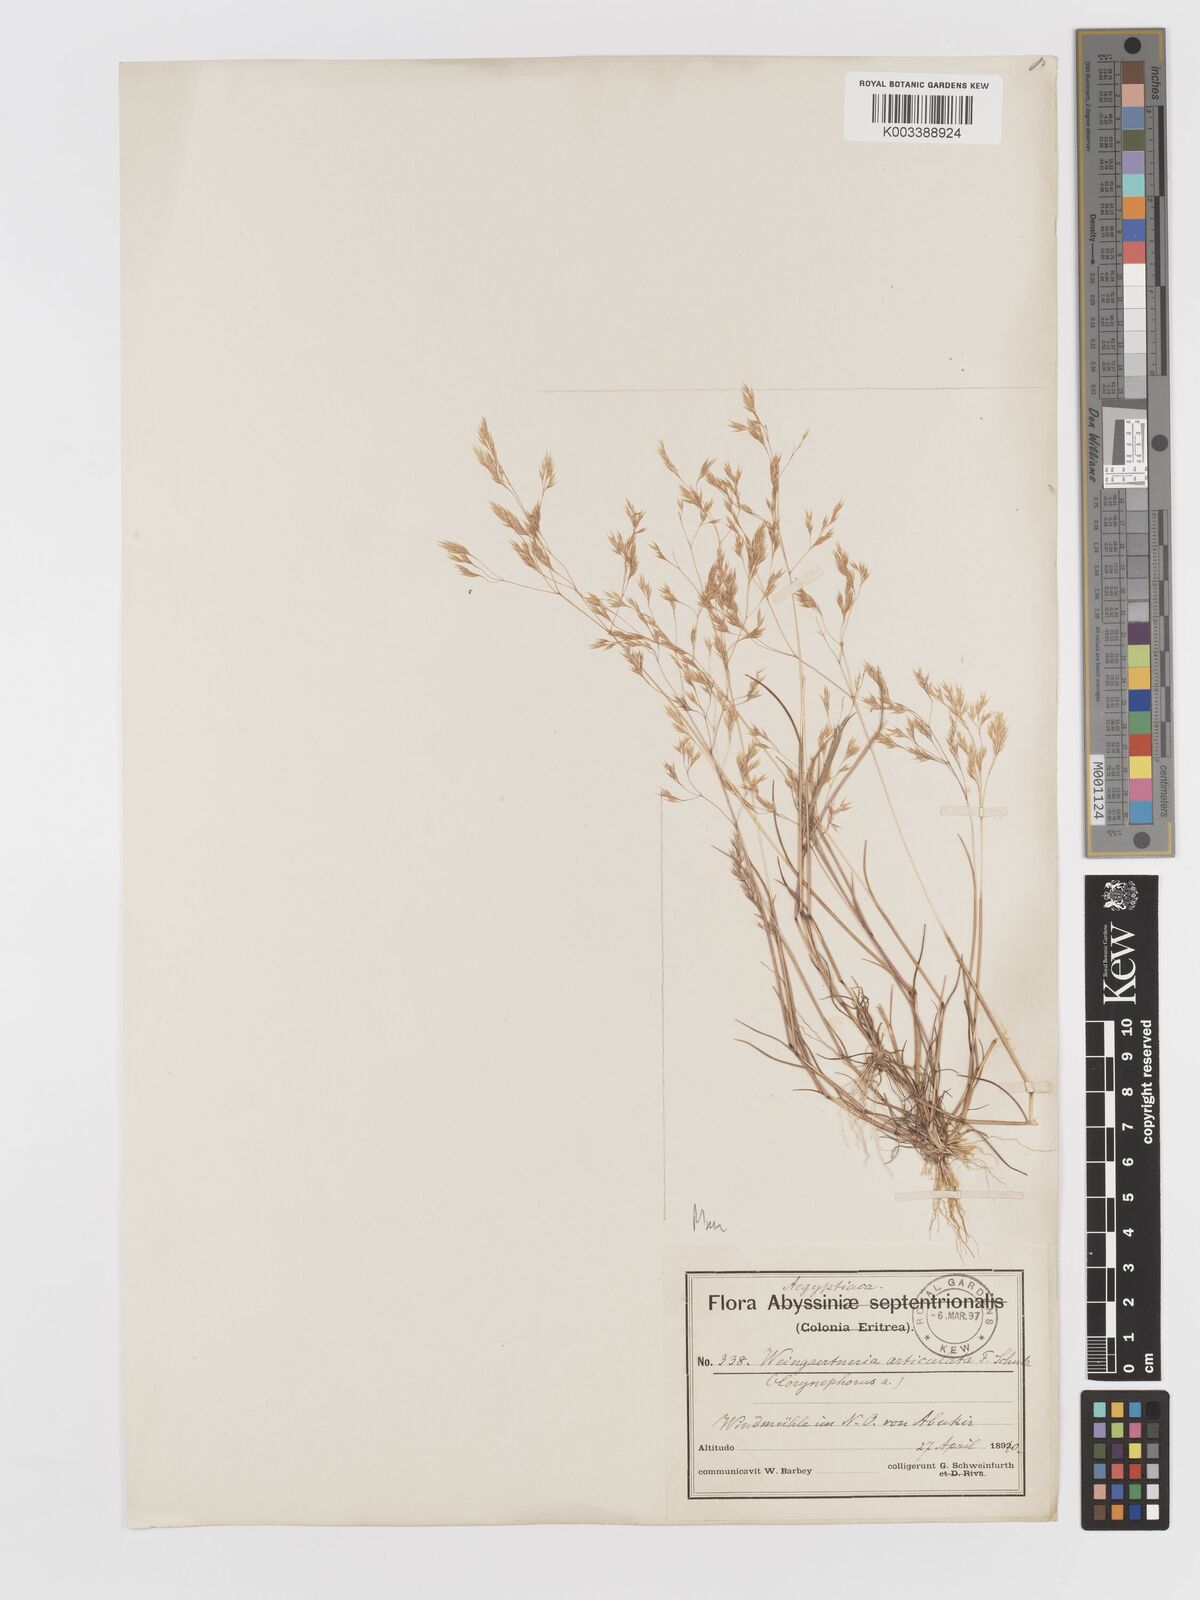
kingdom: Plantae
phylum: Tracheophyta
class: Liliopsida
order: Poales
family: Poaceae
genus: Corynephorus
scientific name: Corynephorus divaricatus
